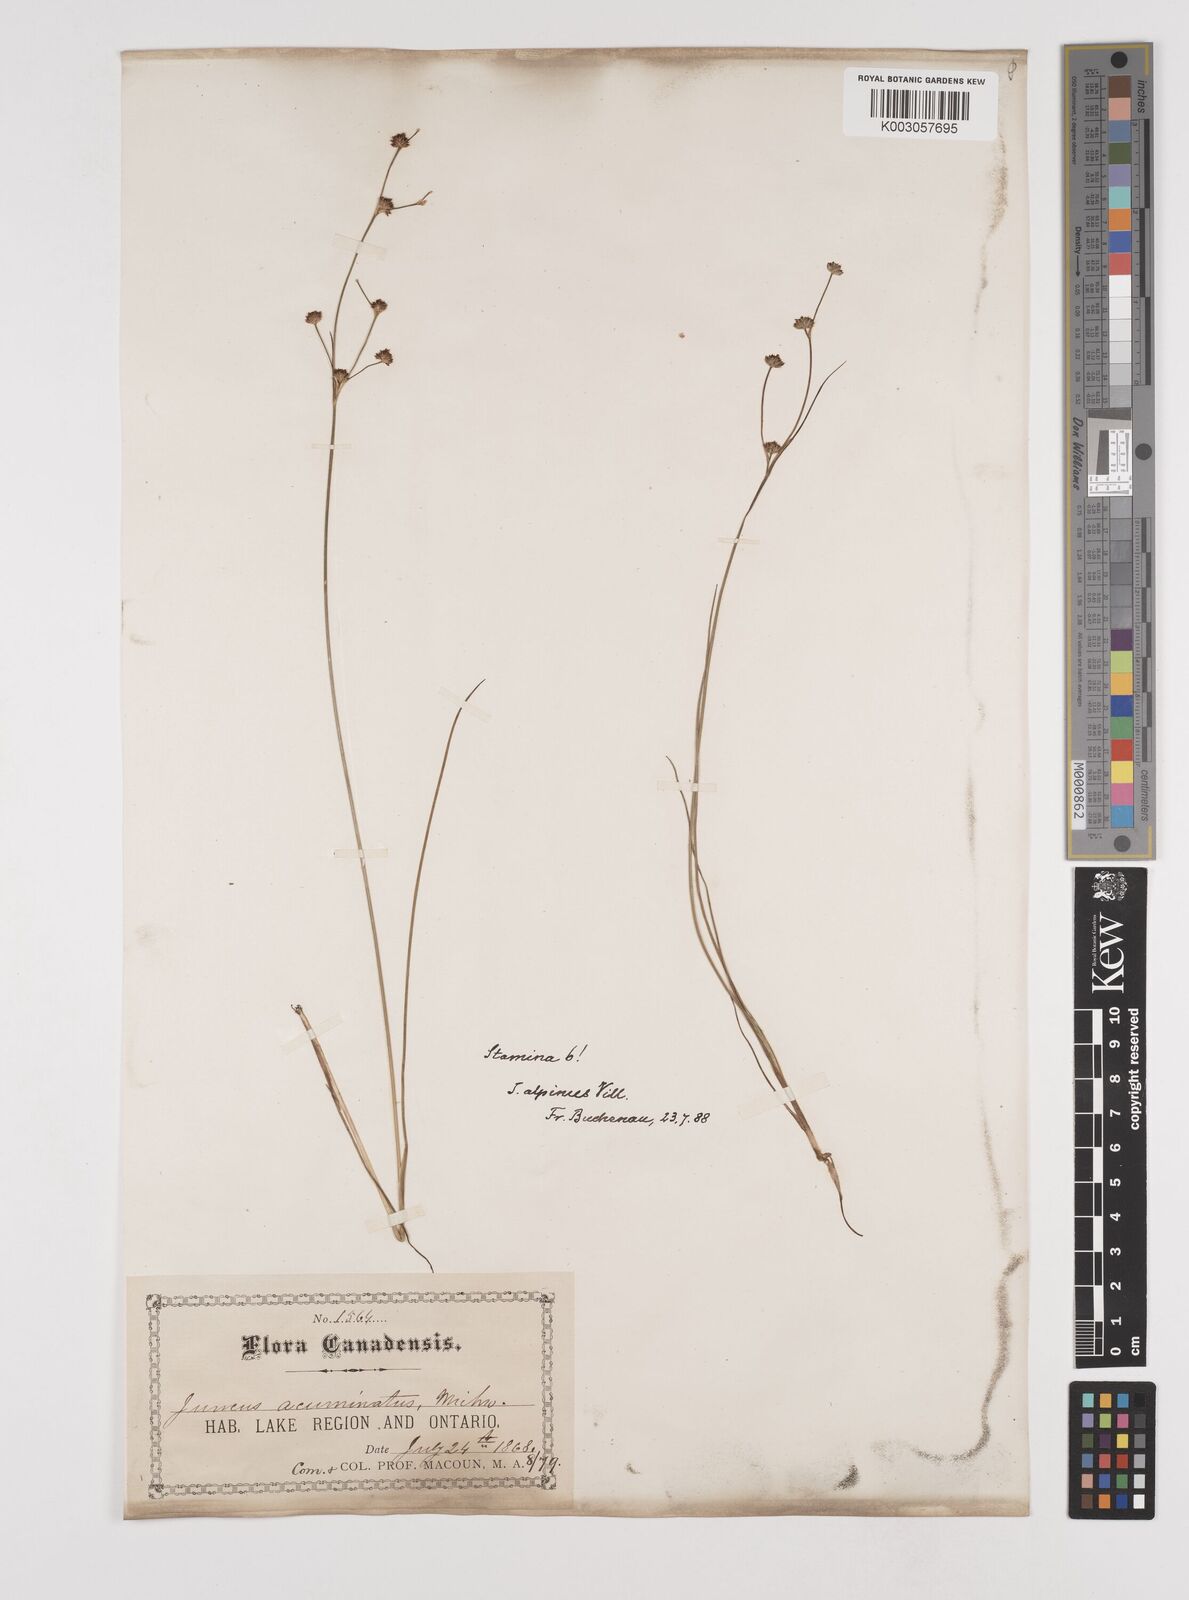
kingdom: Plantae
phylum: Tracheophyta
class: Liliopsida
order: Poales
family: Juncaceae
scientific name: Juncaceae
